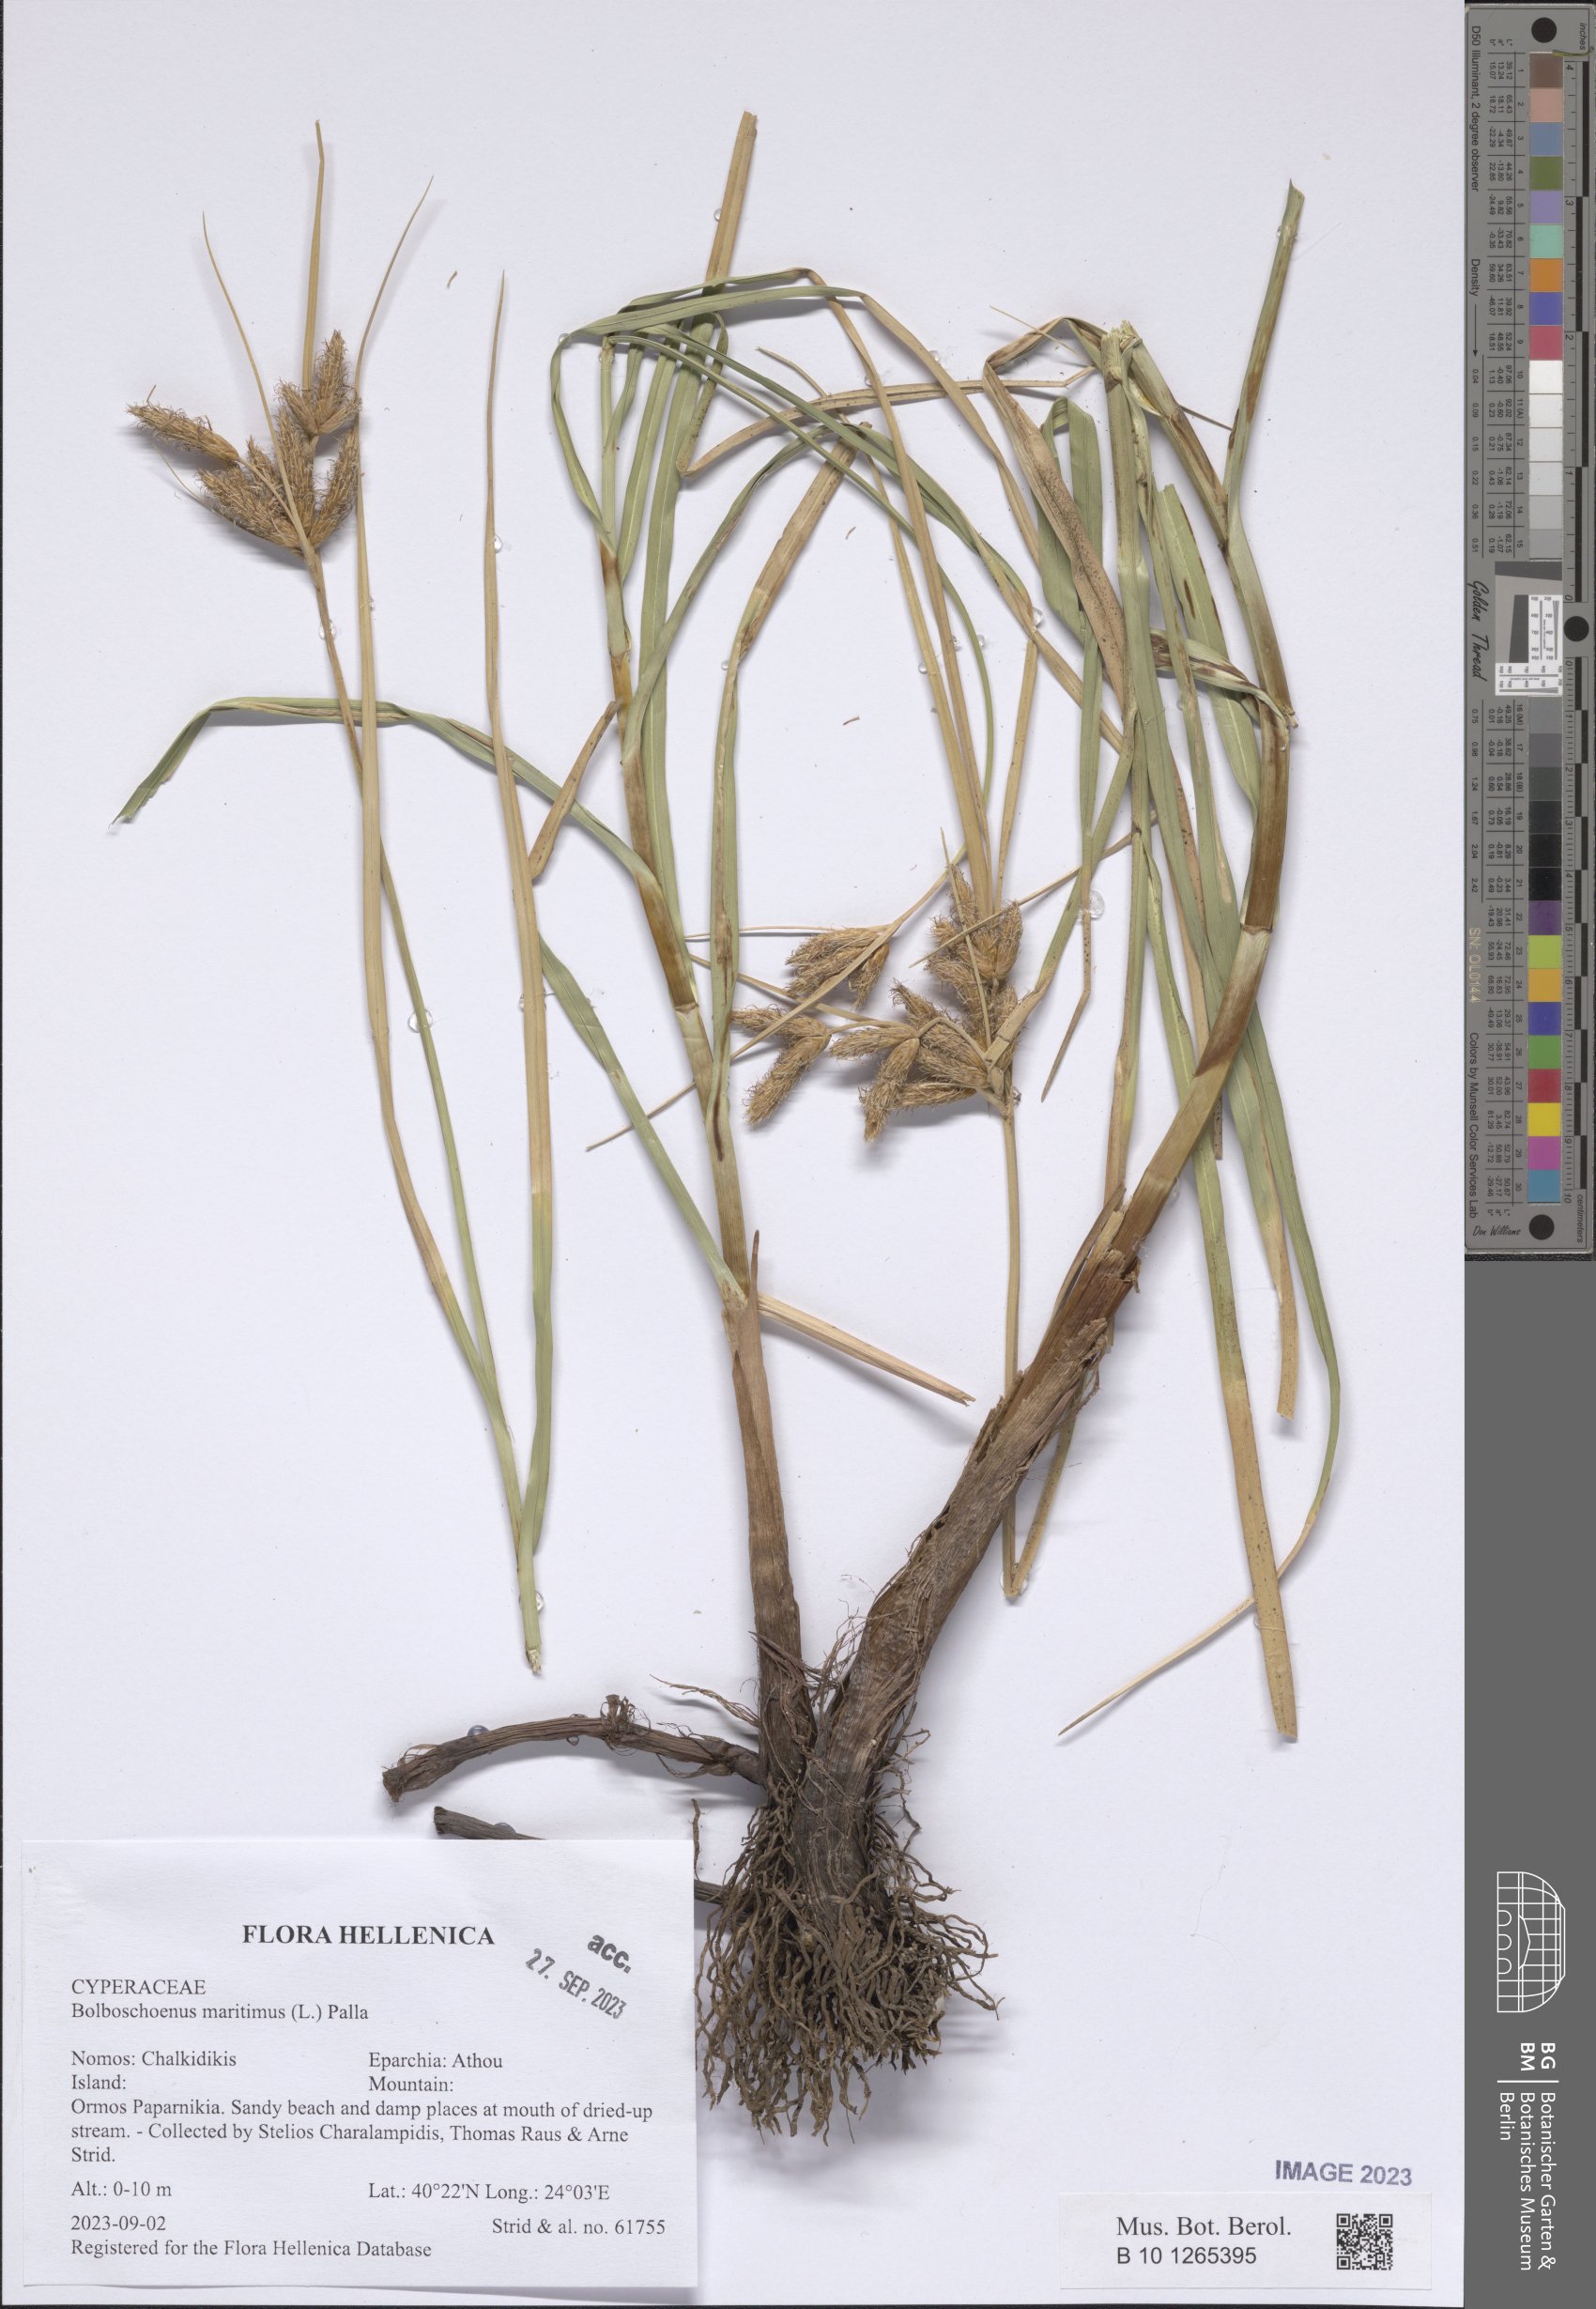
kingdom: Plantae
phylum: Tracheophyta
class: Liliopsida
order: Poales
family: Cyperaceae
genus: Bolboschoenus
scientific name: Bolboschoenus maritimus
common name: Sea club-rush
